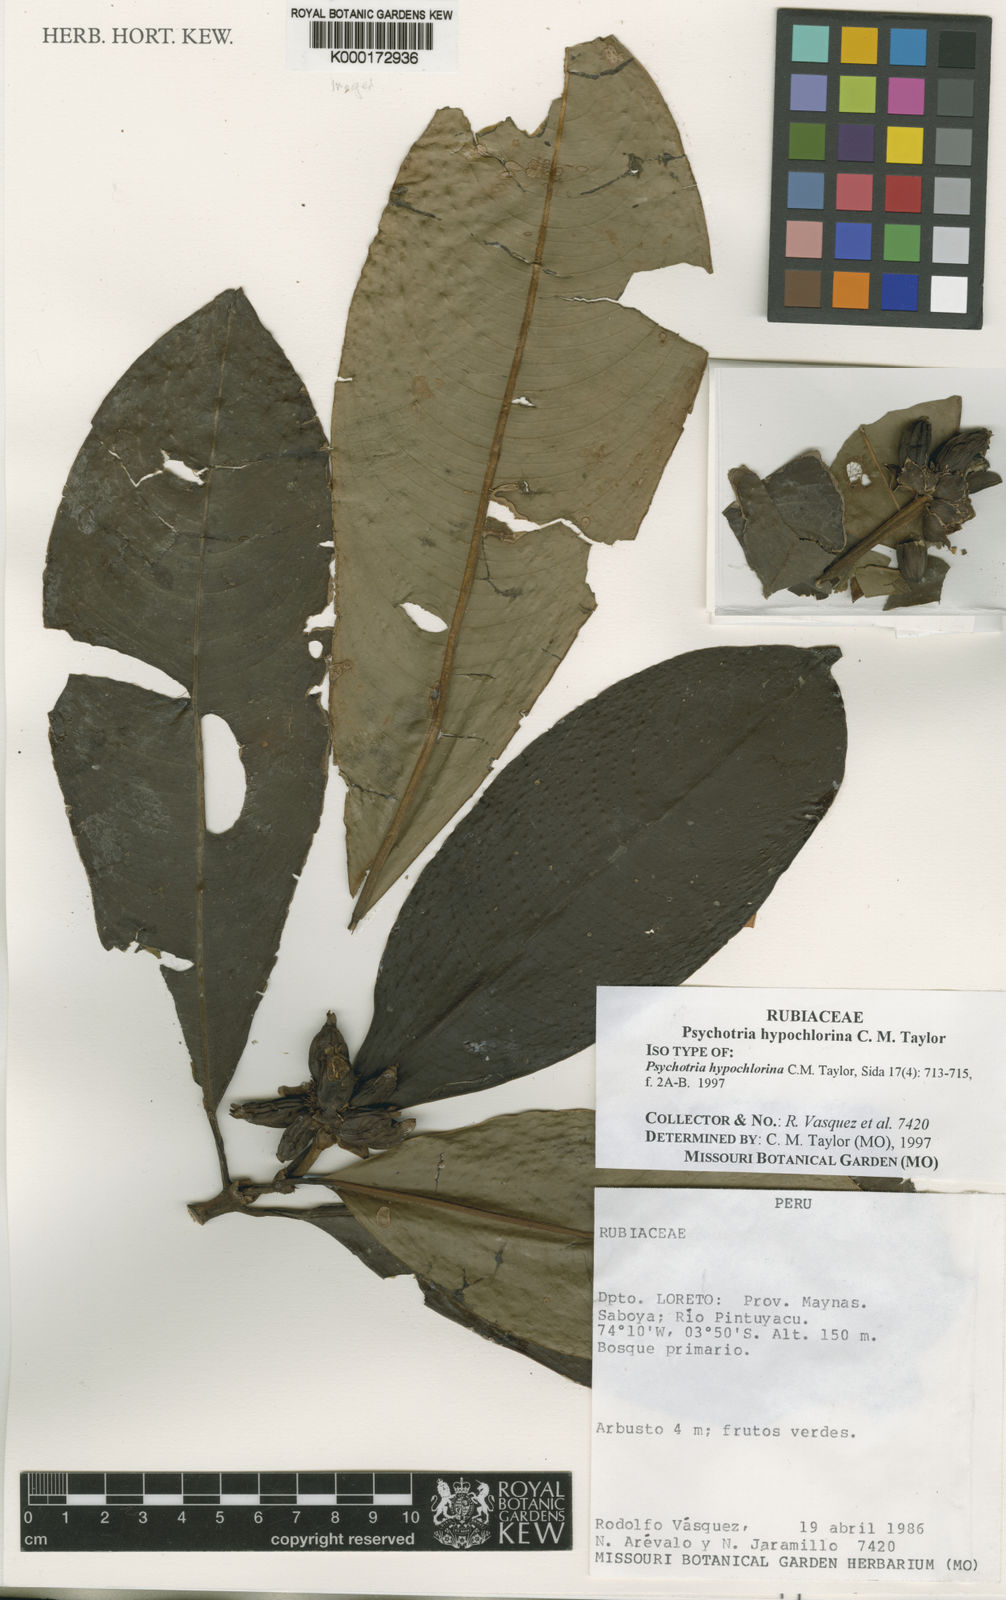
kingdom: Plantae
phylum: Tracheophyta
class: Magnoliopsida
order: Gentianales
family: Rubiaceae
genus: Palicourea
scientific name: Palicourea hypochlorina
